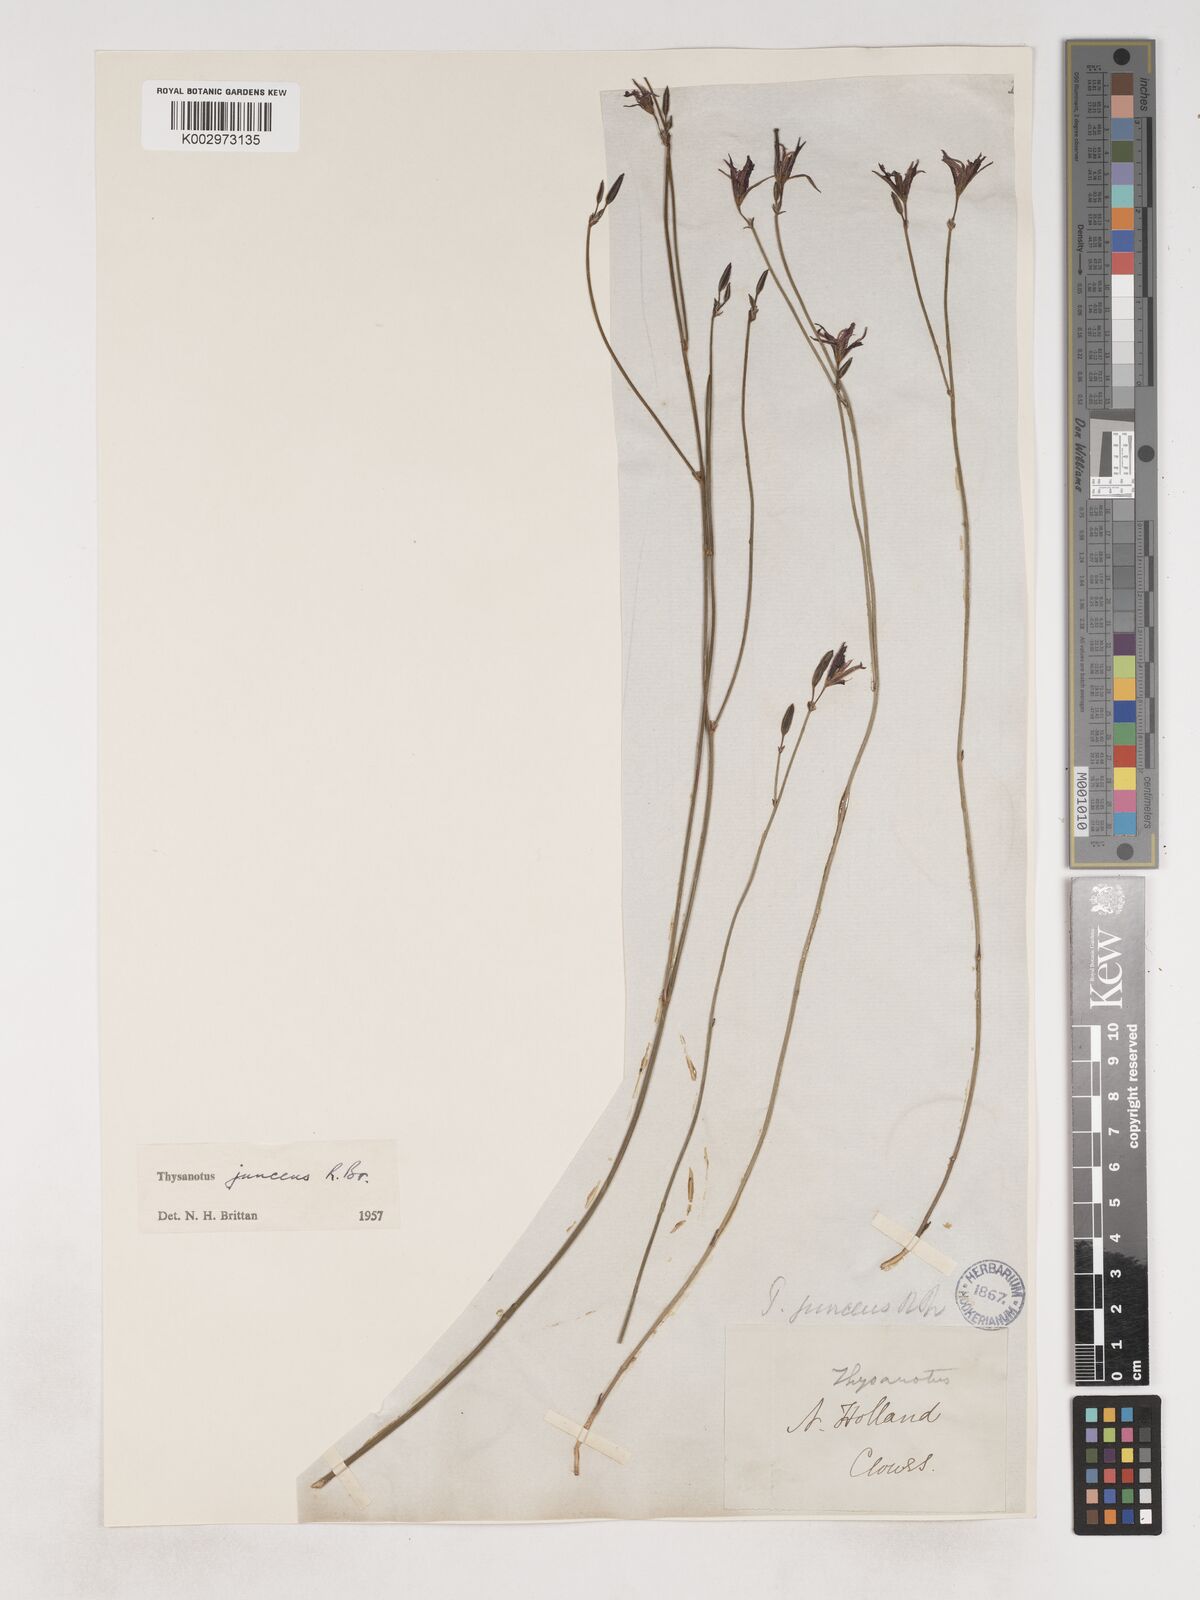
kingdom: Plantae
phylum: Tracheophyta
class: Liliopsida
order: Asparagales
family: Asparagaceae
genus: Thysanotus
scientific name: Thysanotus juncifolius
